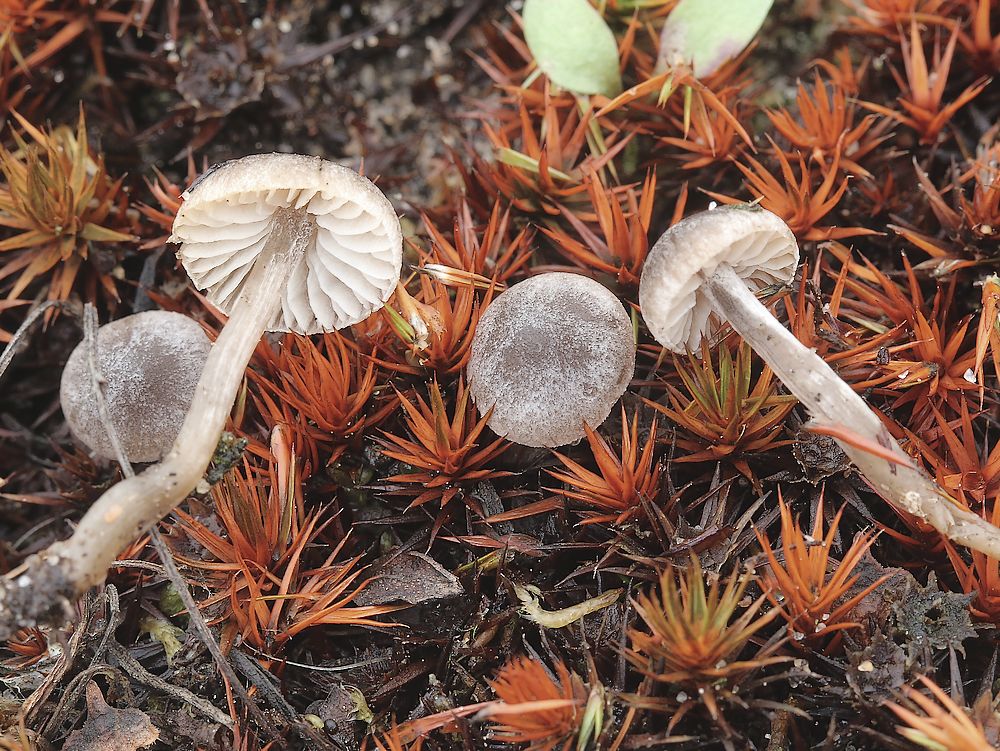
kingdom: Fungi
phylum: Basidiomycota
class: Agaricomycetes
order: Agaricales
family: Lyophyllaceae
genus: Sagaranella
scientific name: Sagaranella tylicolor
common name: kvælstof-gråblad
